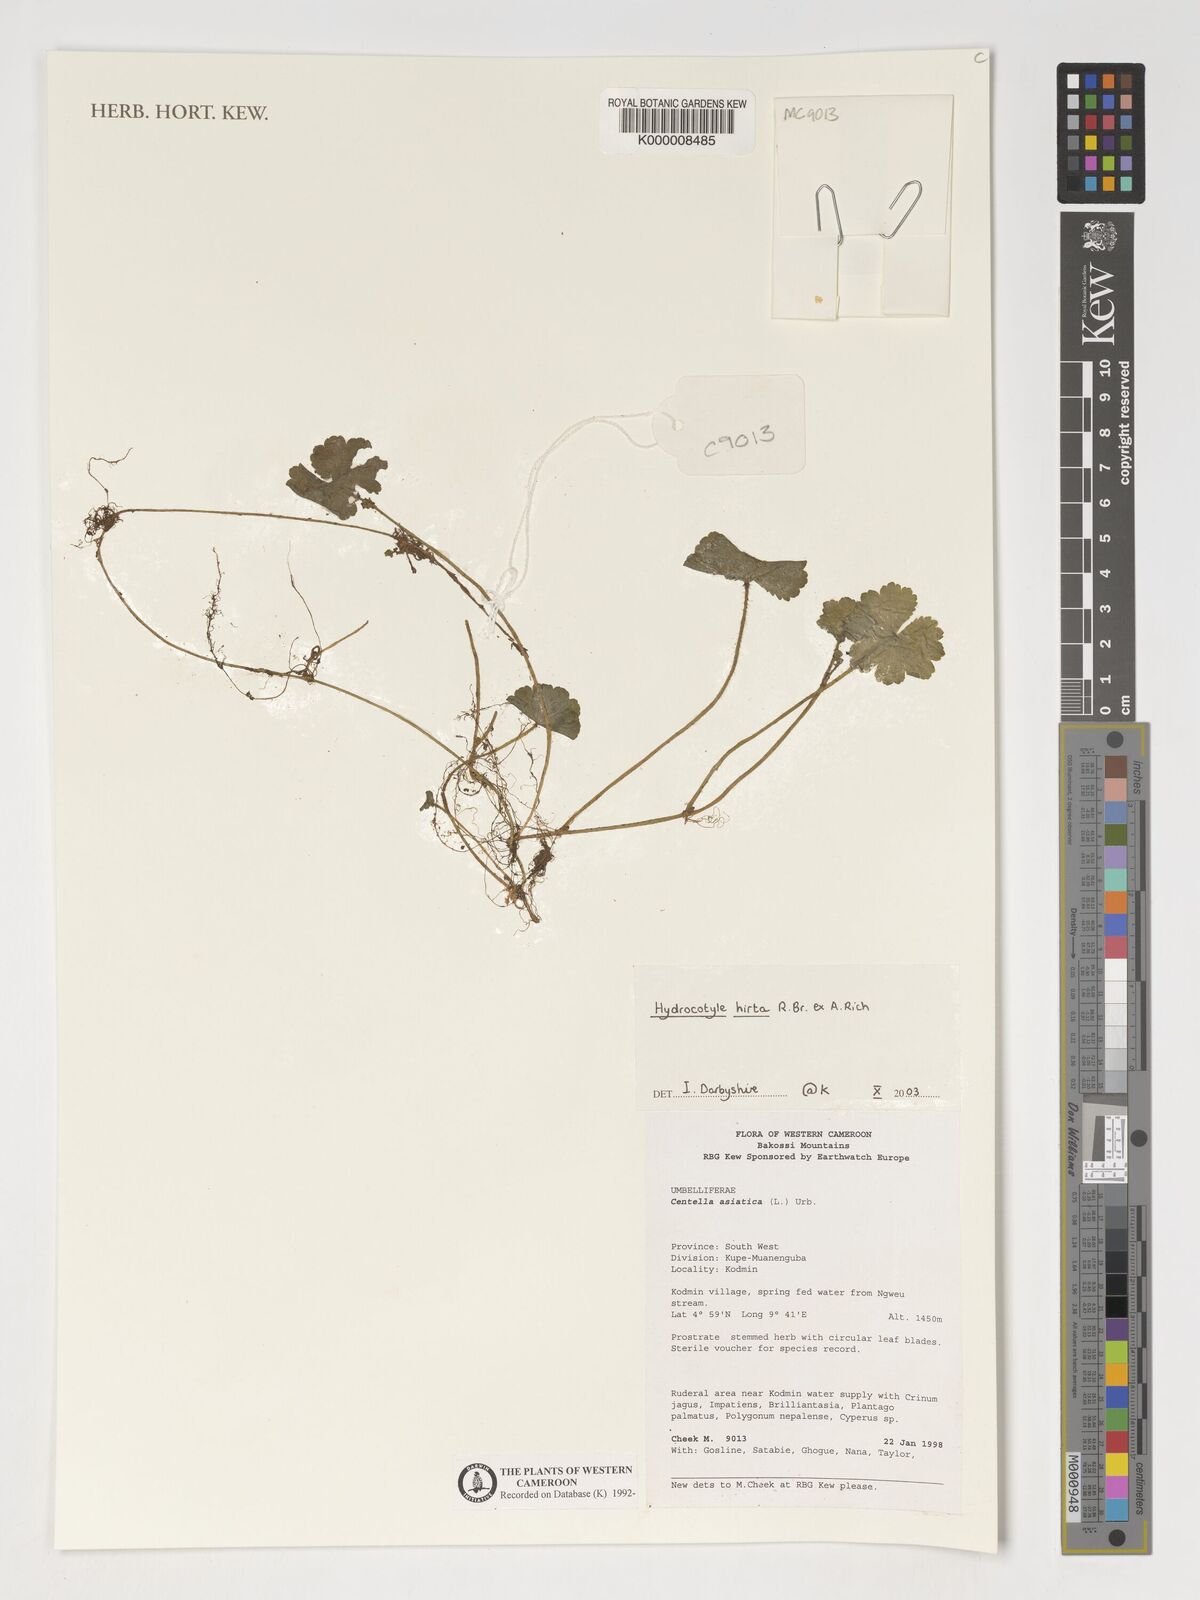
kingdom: Plantae
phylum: Tracheophyta
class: Magnoliopsida
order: Apiales
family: Araliaceae
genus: Hydrocotyle
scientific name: Hydrocotyle hirta
